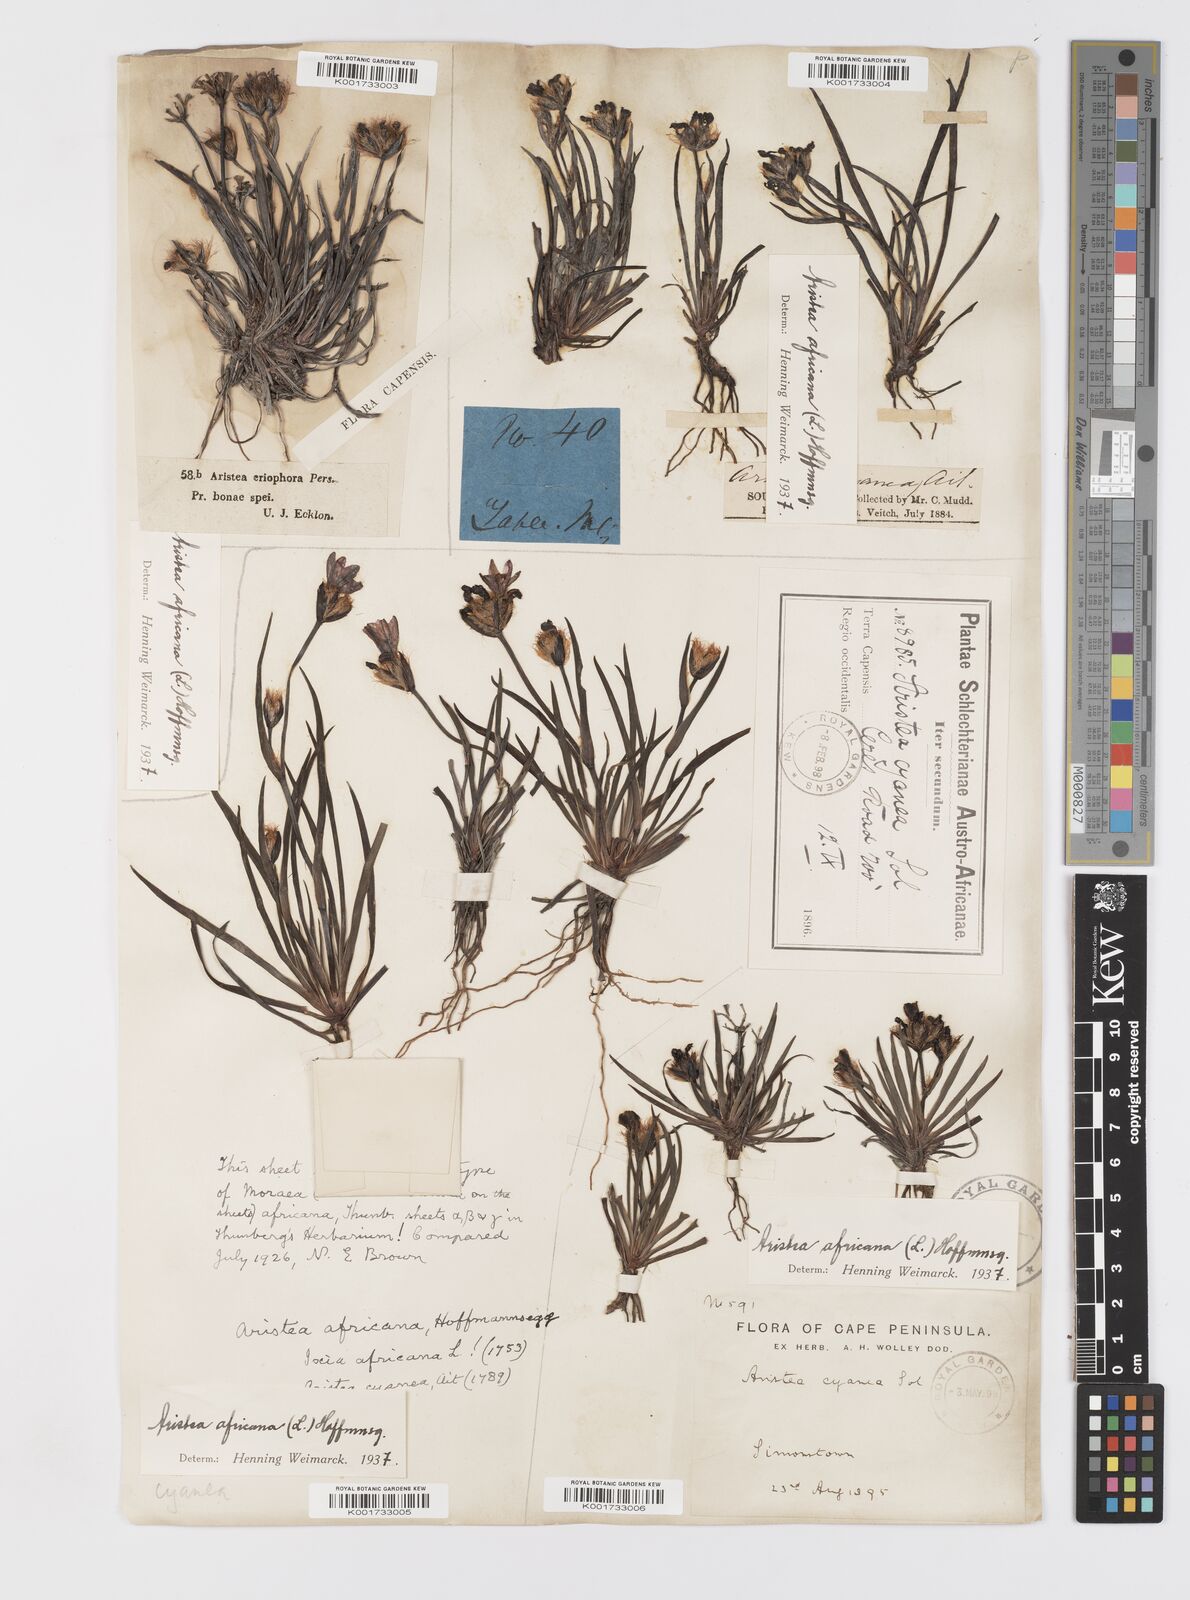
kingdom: Plantae
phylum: Tracheophyta
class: Liliopsida
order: Asparagales
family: Iridaceae
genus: Aristea
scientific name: Aristea africana
